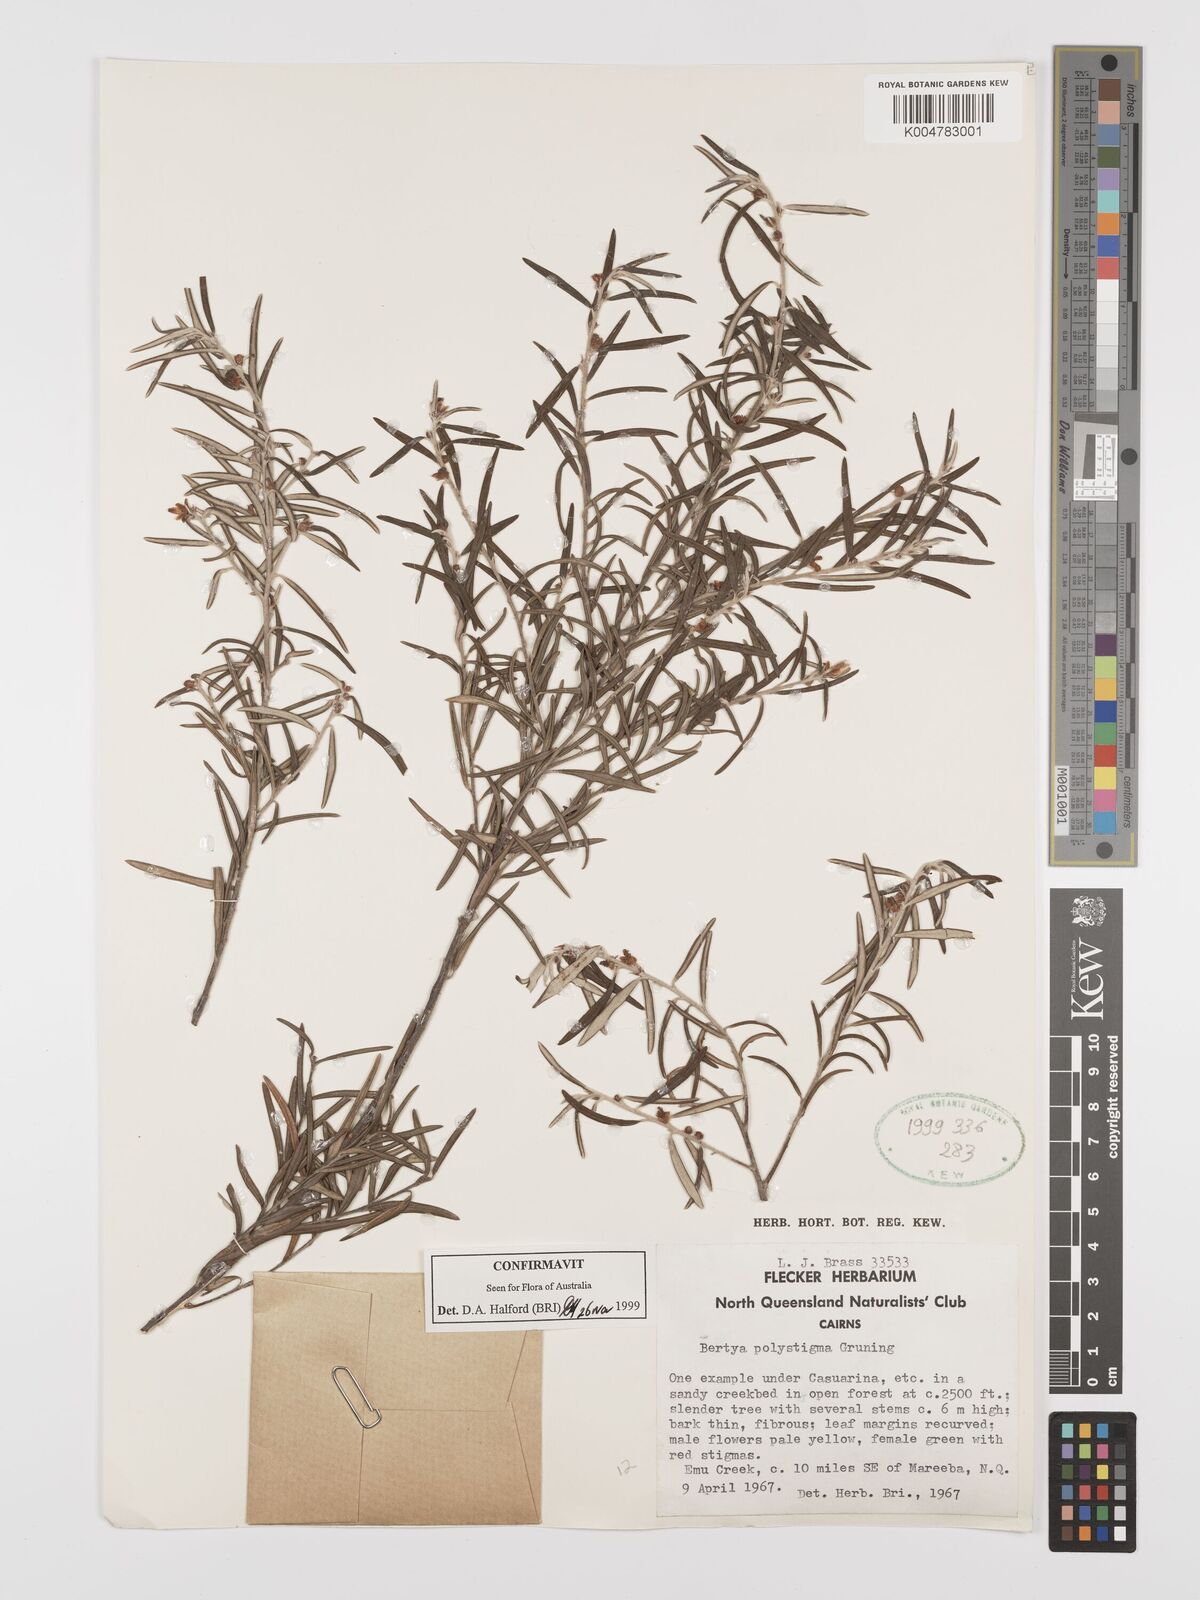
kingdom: Plantae
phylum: Tracheophyta
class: Magnoliopsida
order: Malpighiales
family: Euphorbiaceae
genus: Bertya
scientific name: Bertya polystigma
